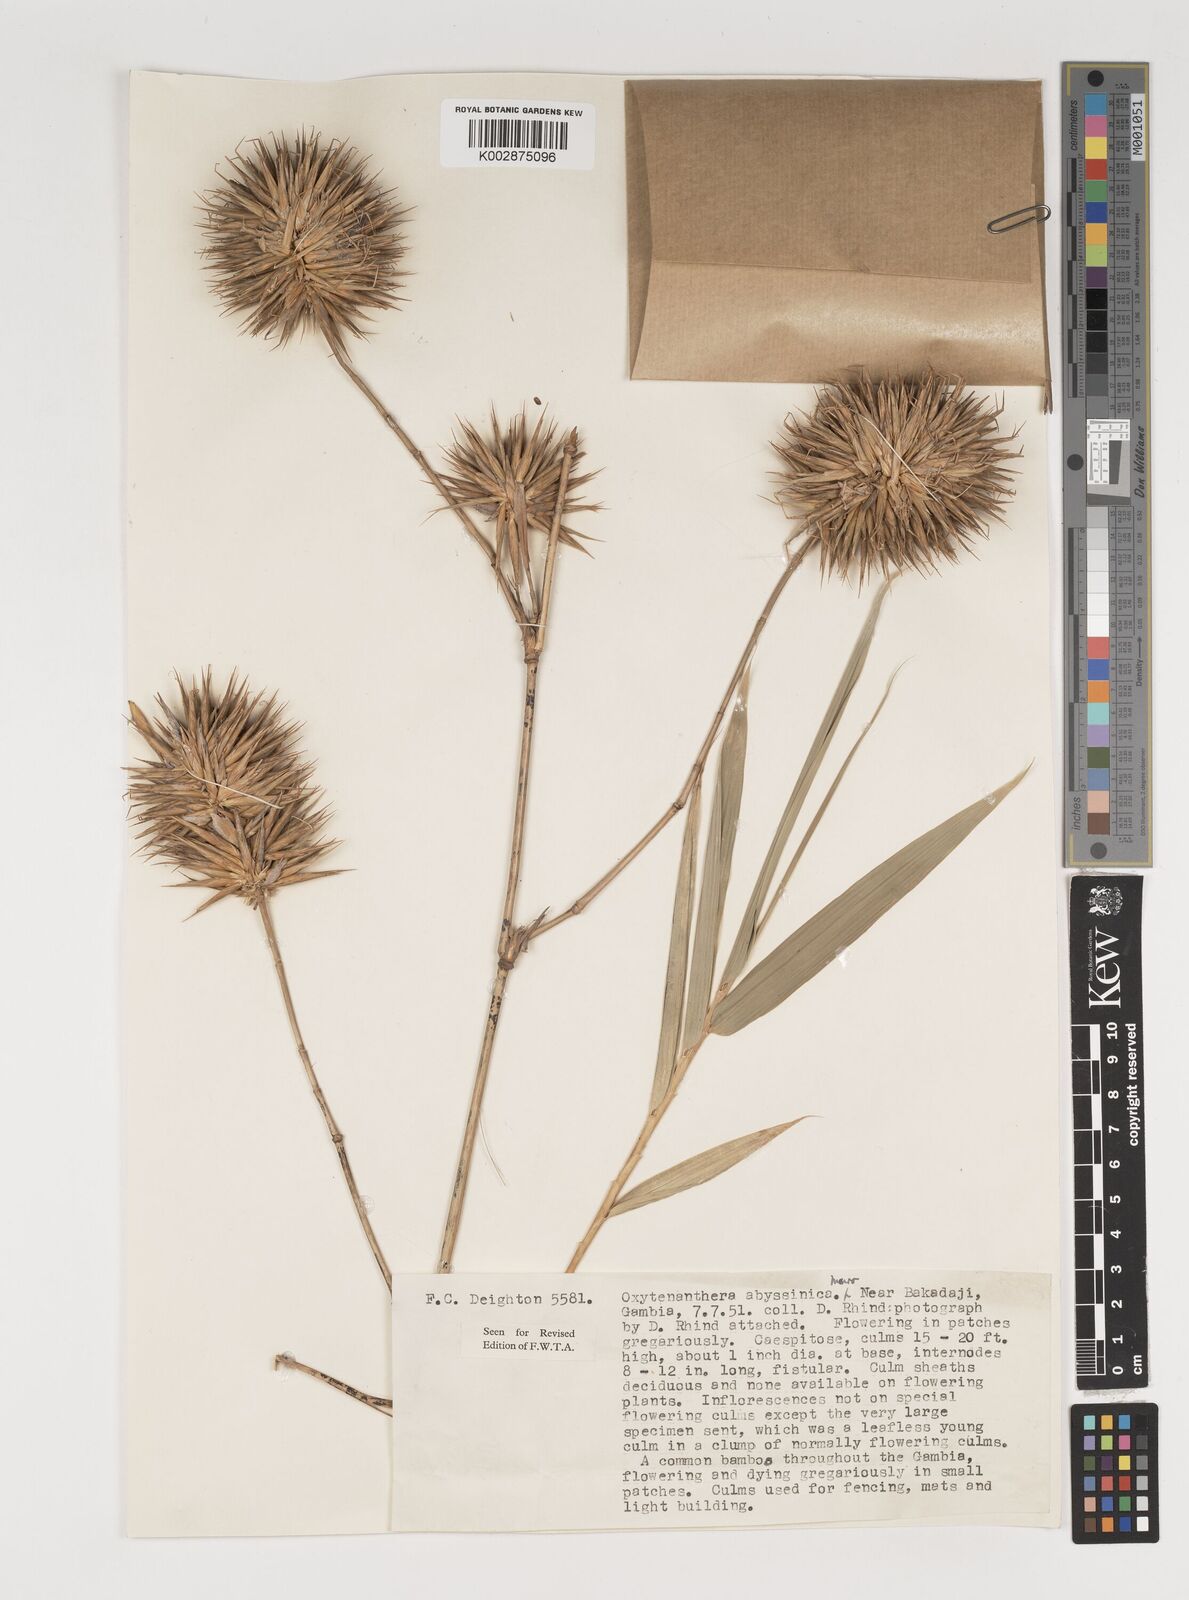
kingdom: Plantae
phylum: Tracheophyta
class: Liliopsida
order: Poales
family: Poaceae
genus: Oxytenanthera
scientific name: Oxytenanthera abyssinica
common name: Wine bamboo
